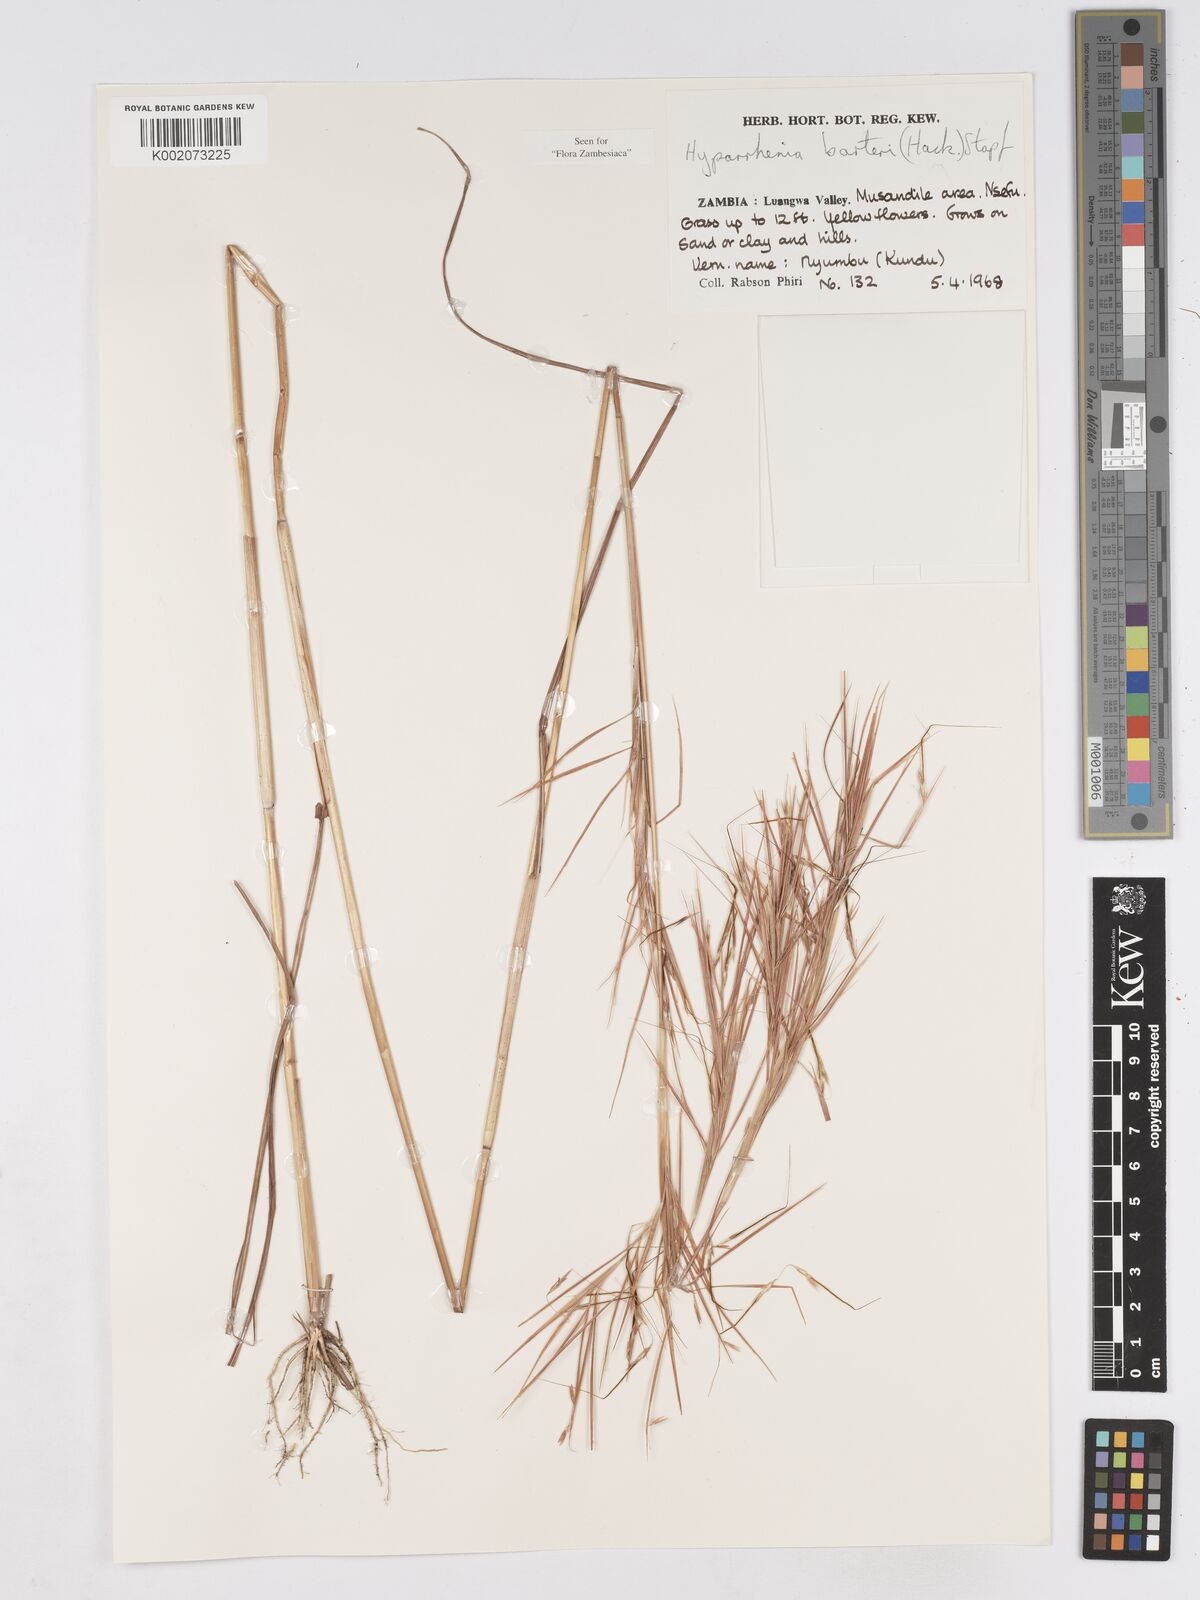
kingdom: Plantae
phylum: Tracheophyta
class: Liliopsida
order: Poales
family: Poaceae
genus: Hyparrhenia
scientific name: Hyparrhenia barteri
